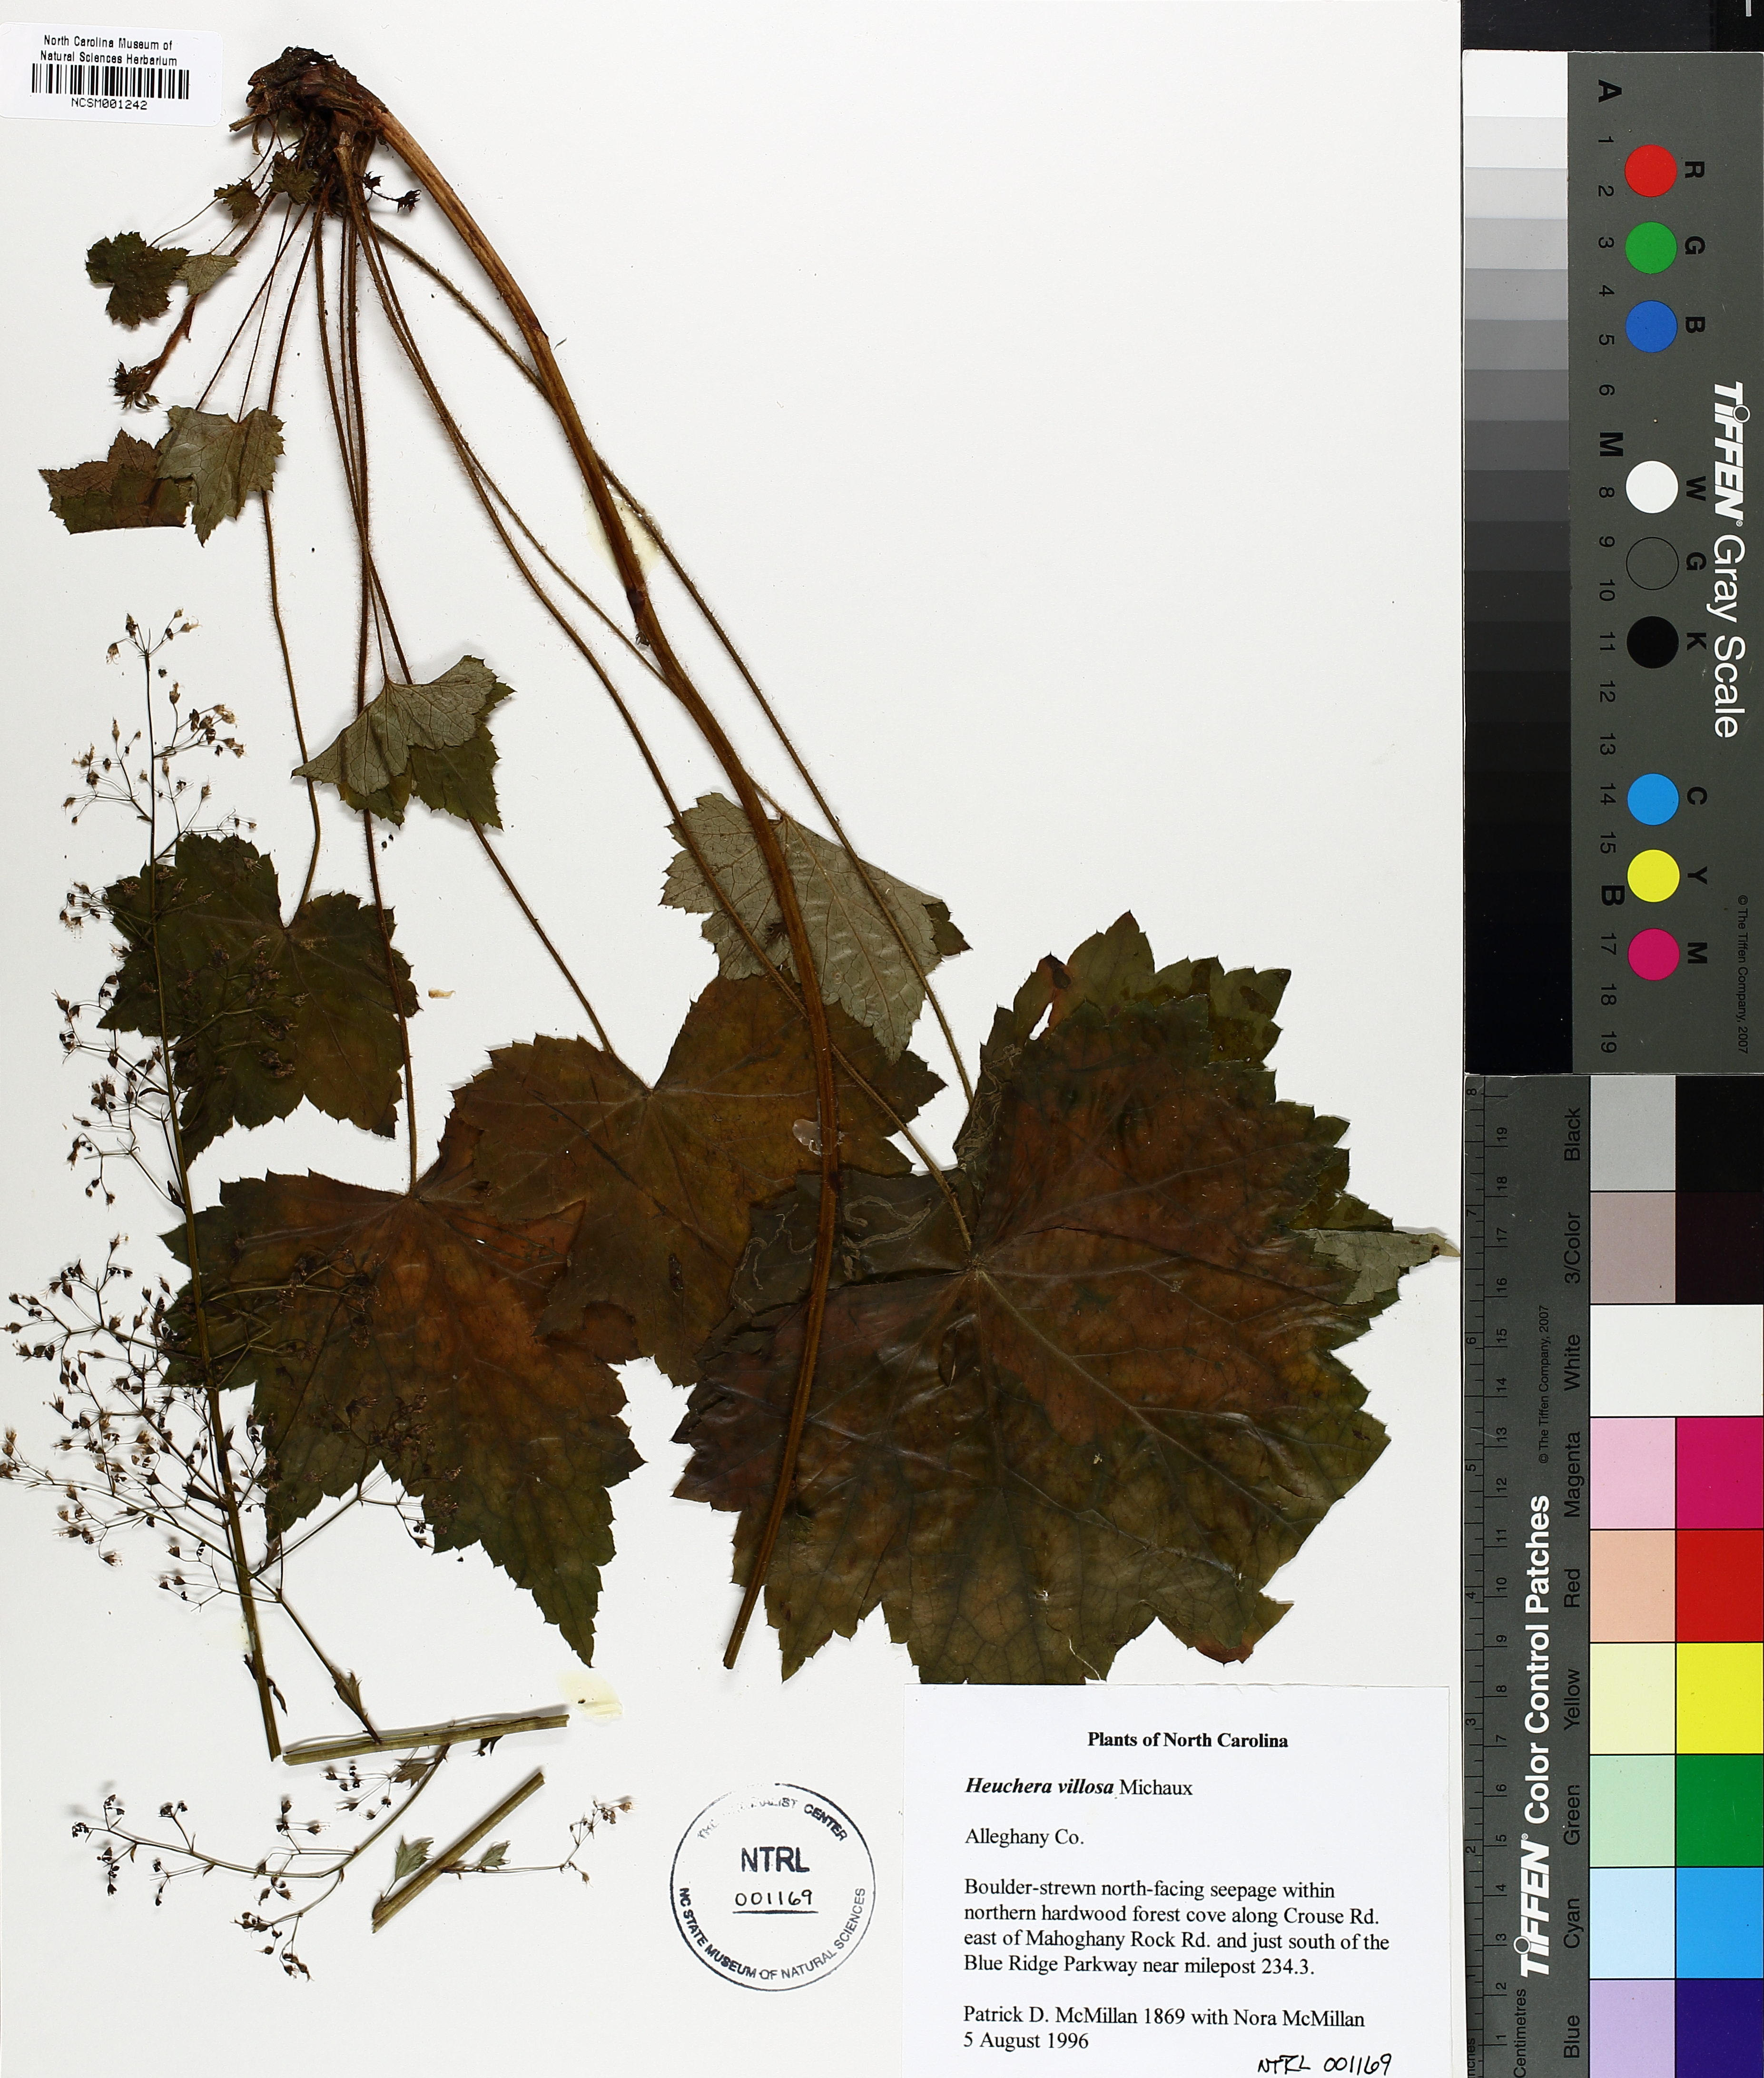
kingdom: Plantae
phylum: Tracheophyta
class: Magnoliopsida
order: Saxifragales
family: Saxifragaceae
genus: Heuchera
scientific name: Heuchera villosa
